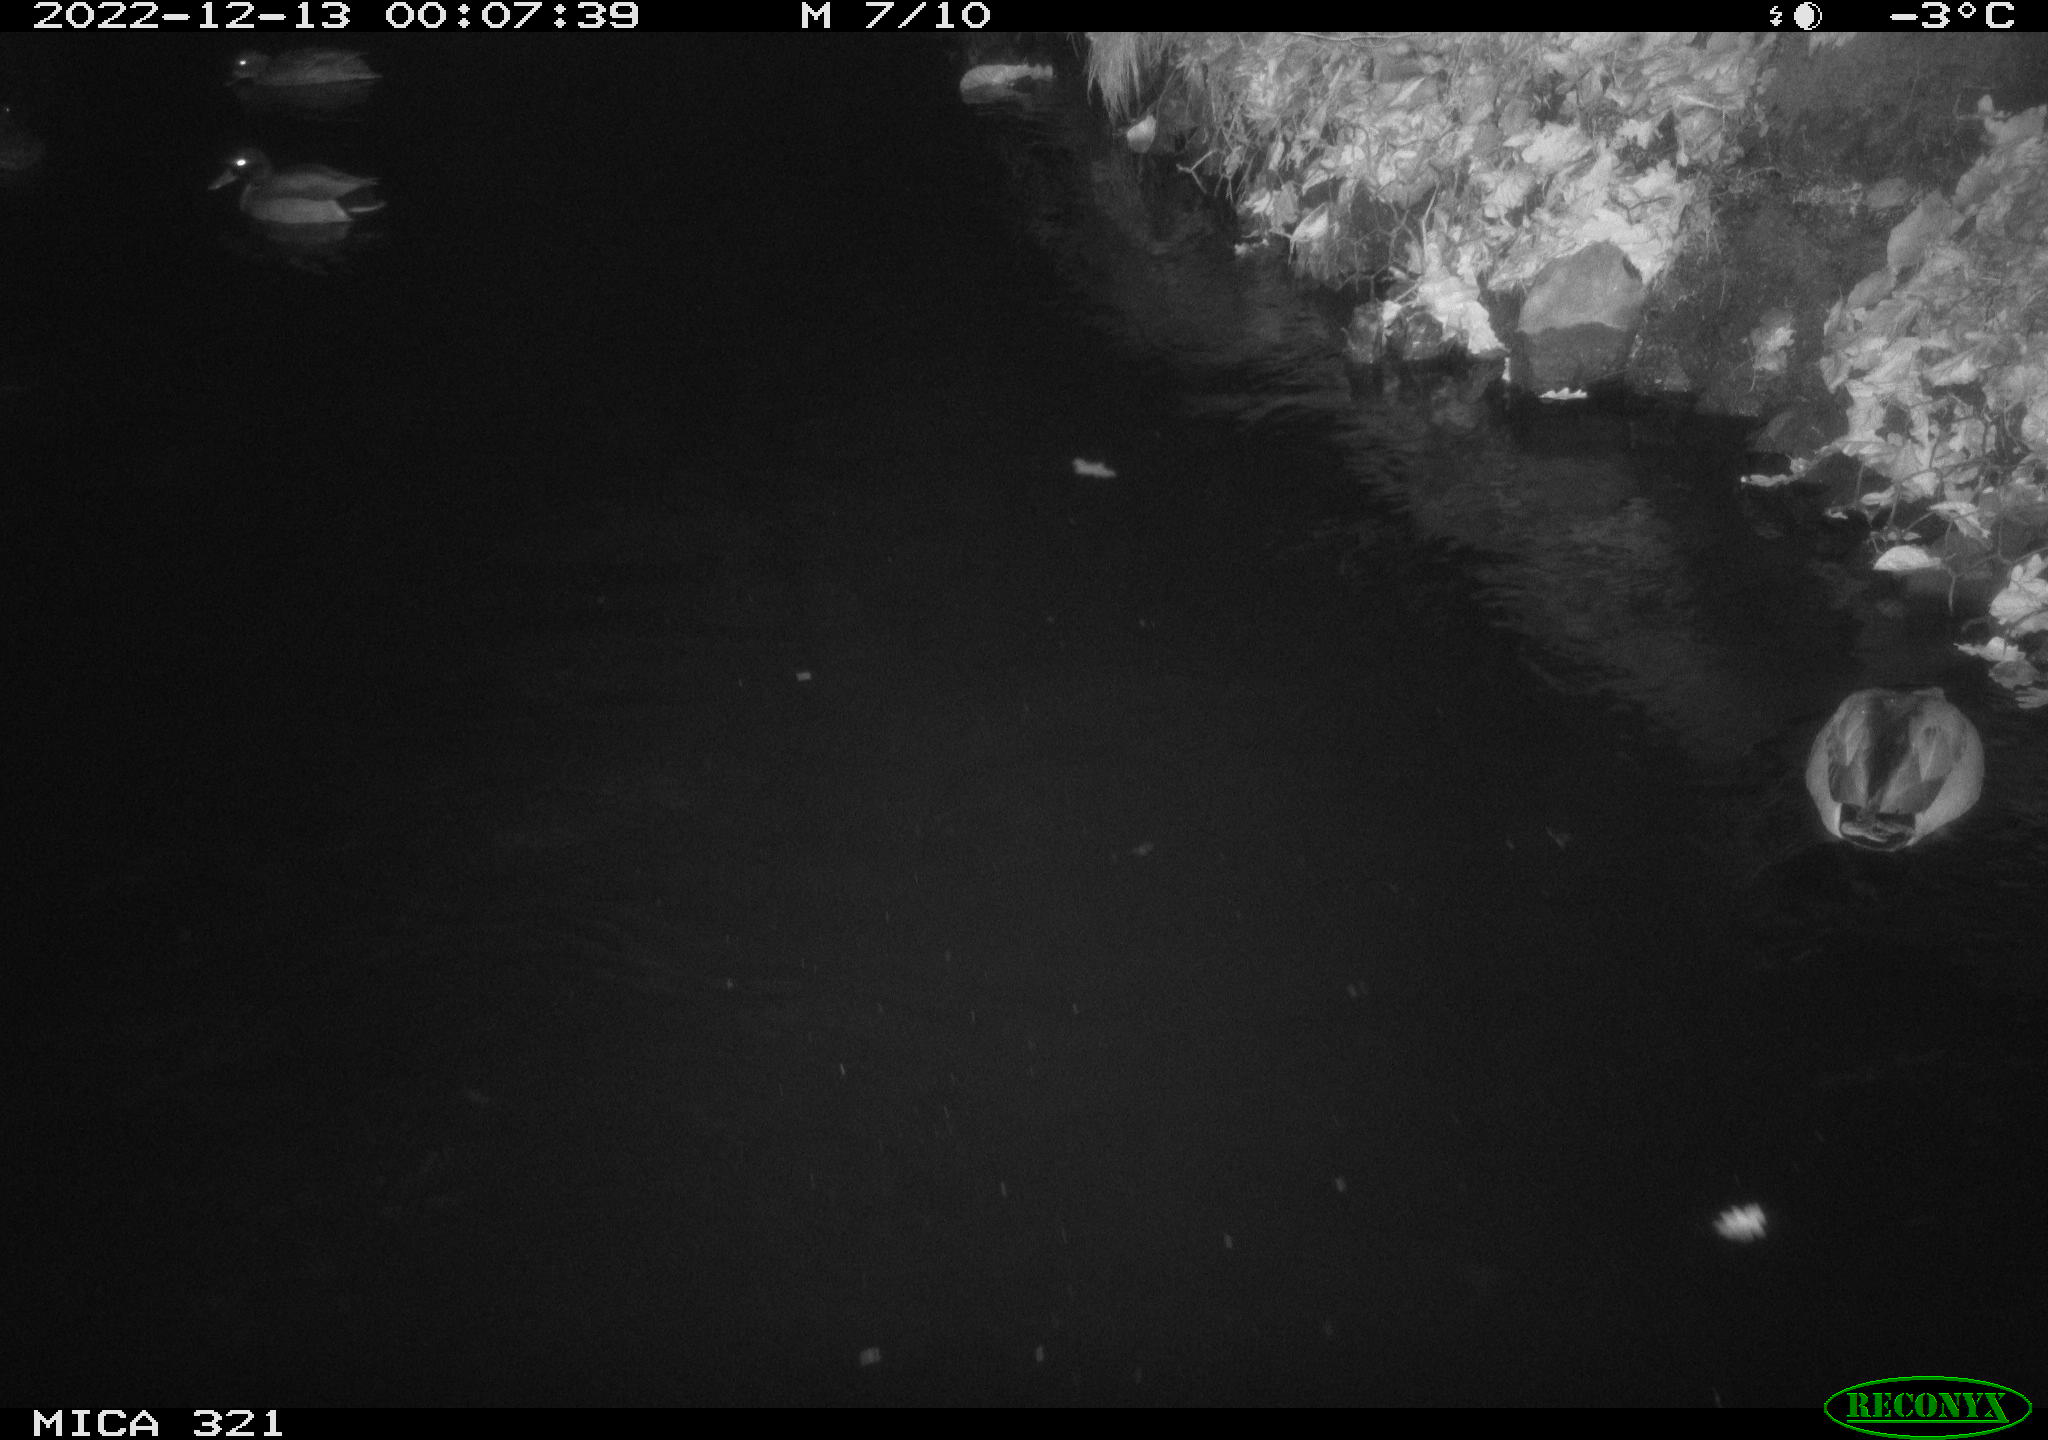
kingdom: Animalia
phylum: Chordata
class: Aves
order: Anseriformes
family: Anatidae
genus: Anas
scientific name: Anas
